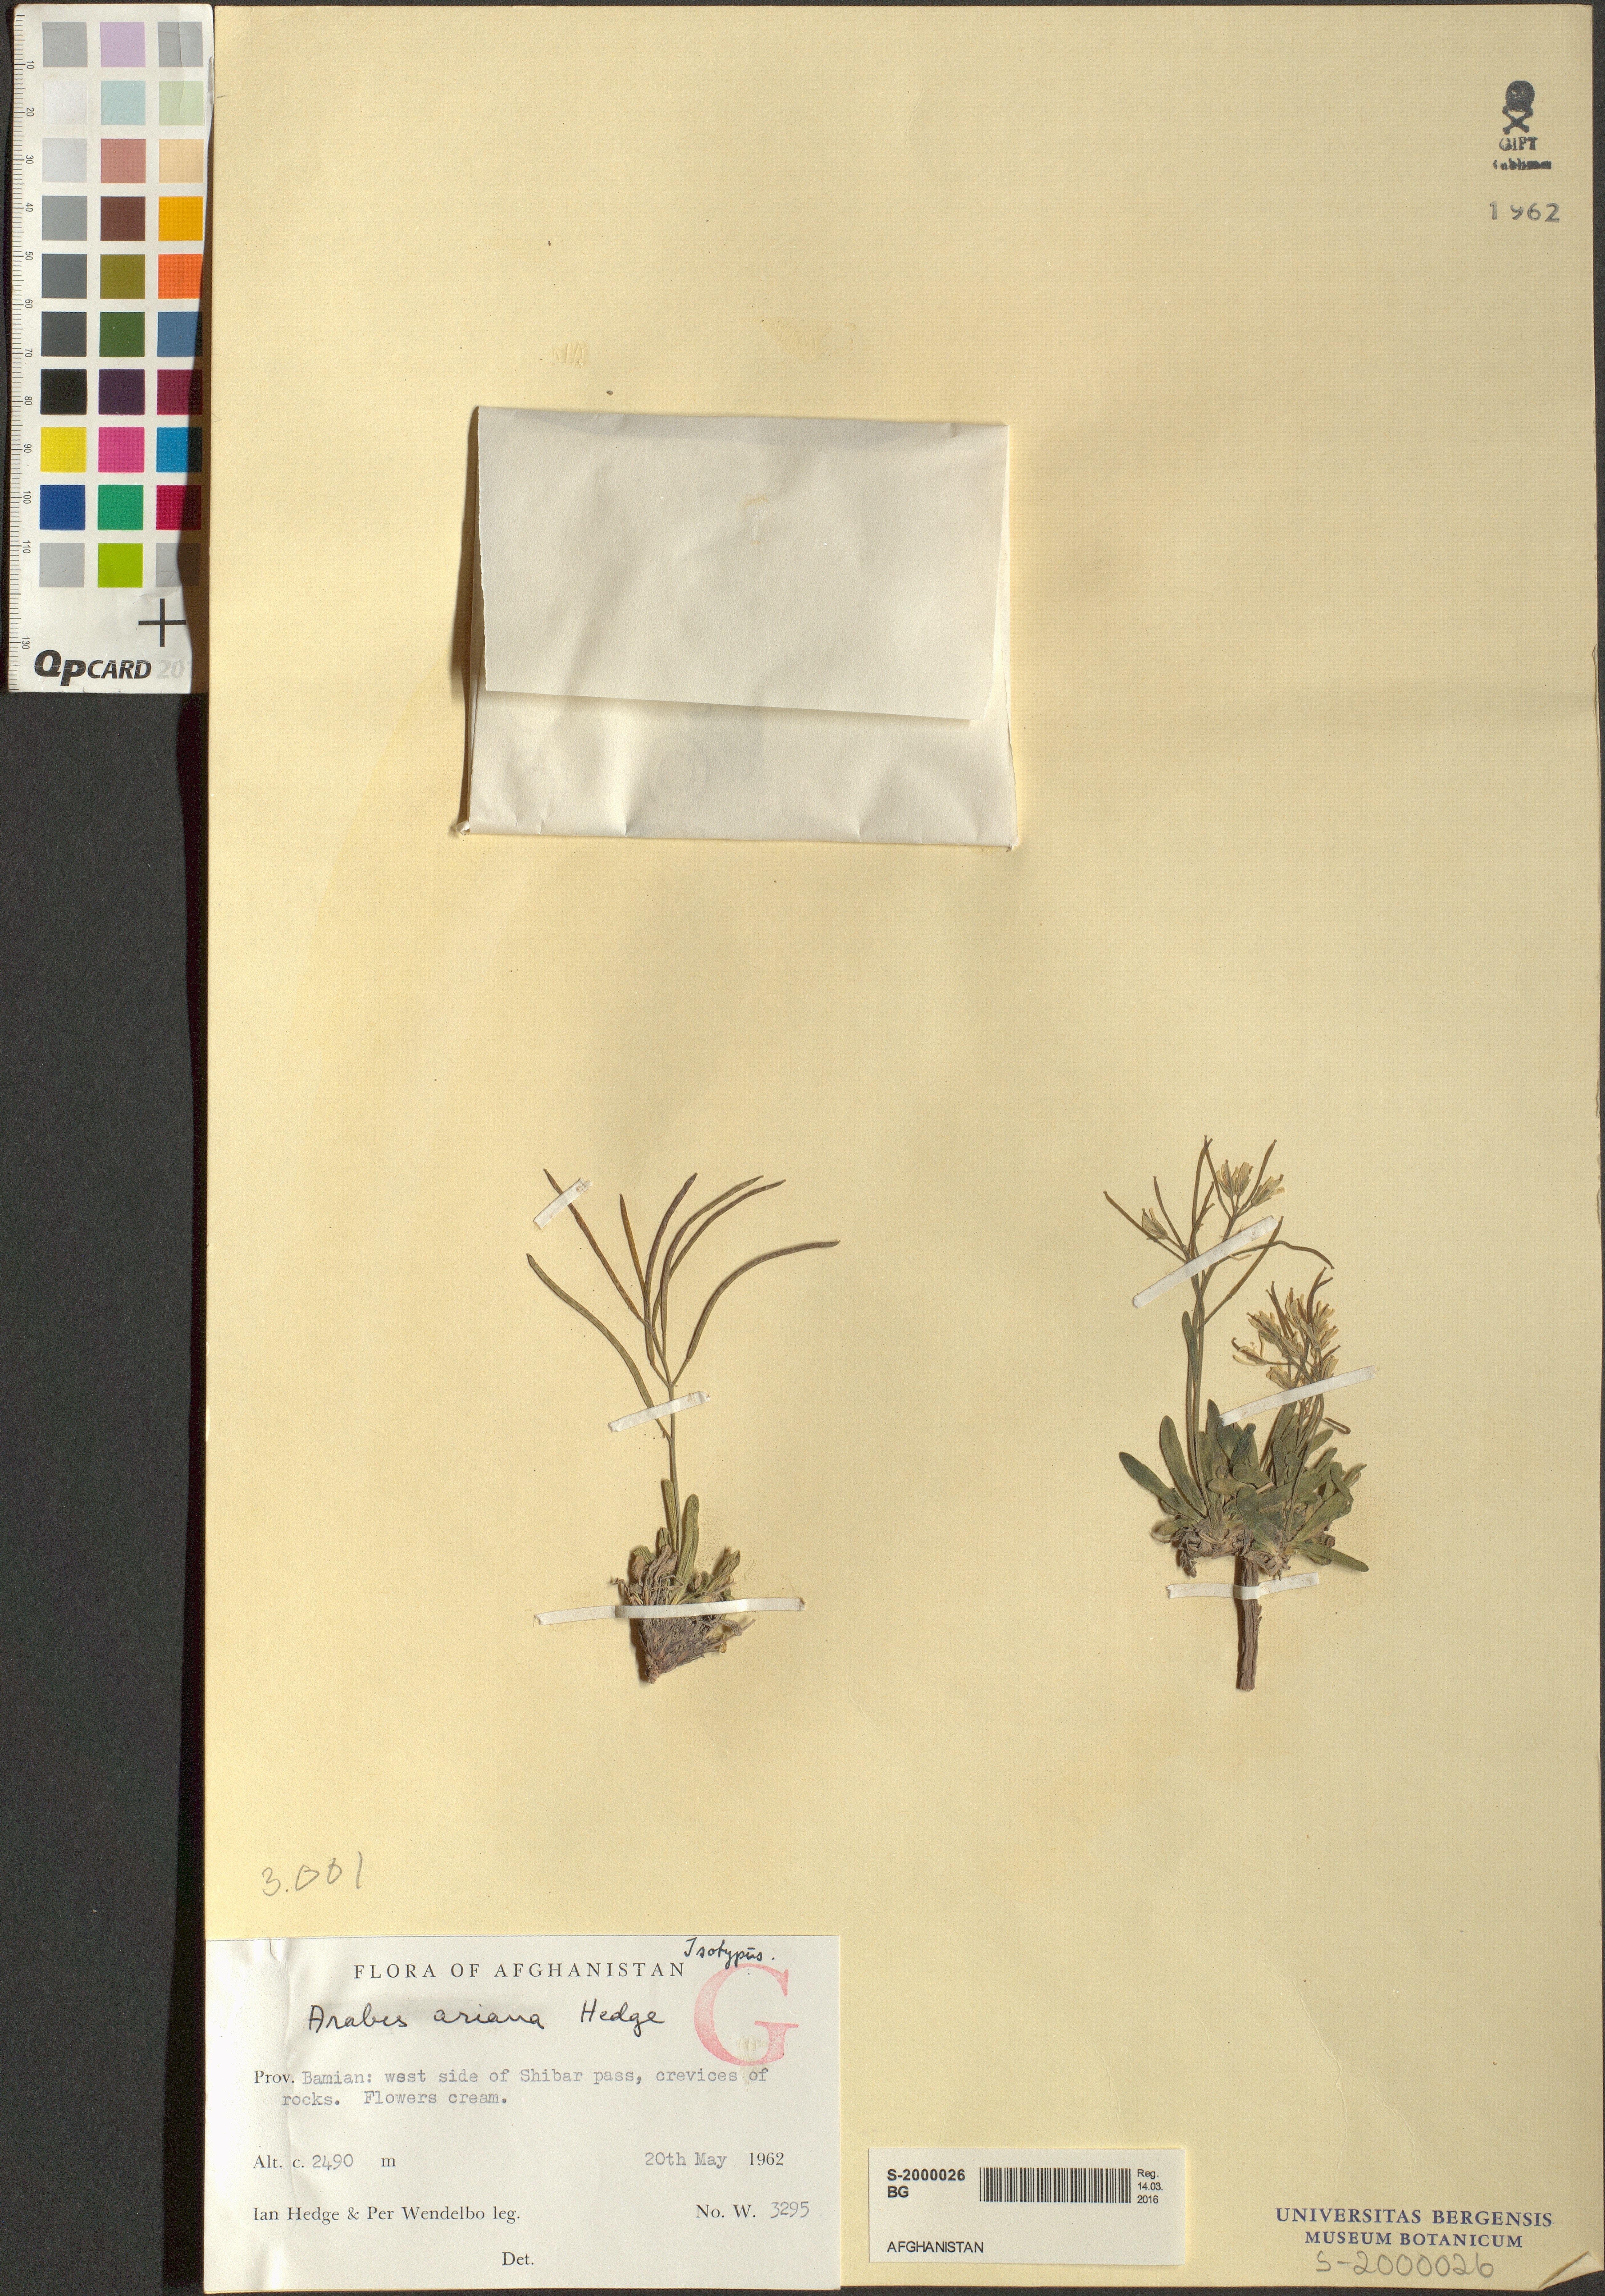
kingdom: Plantae
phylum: Tracheophyta
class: Magnoliopsida
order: Brassicales
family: Brassicaceae
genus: Scapiarabis
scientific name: Scapiarabis ariana
